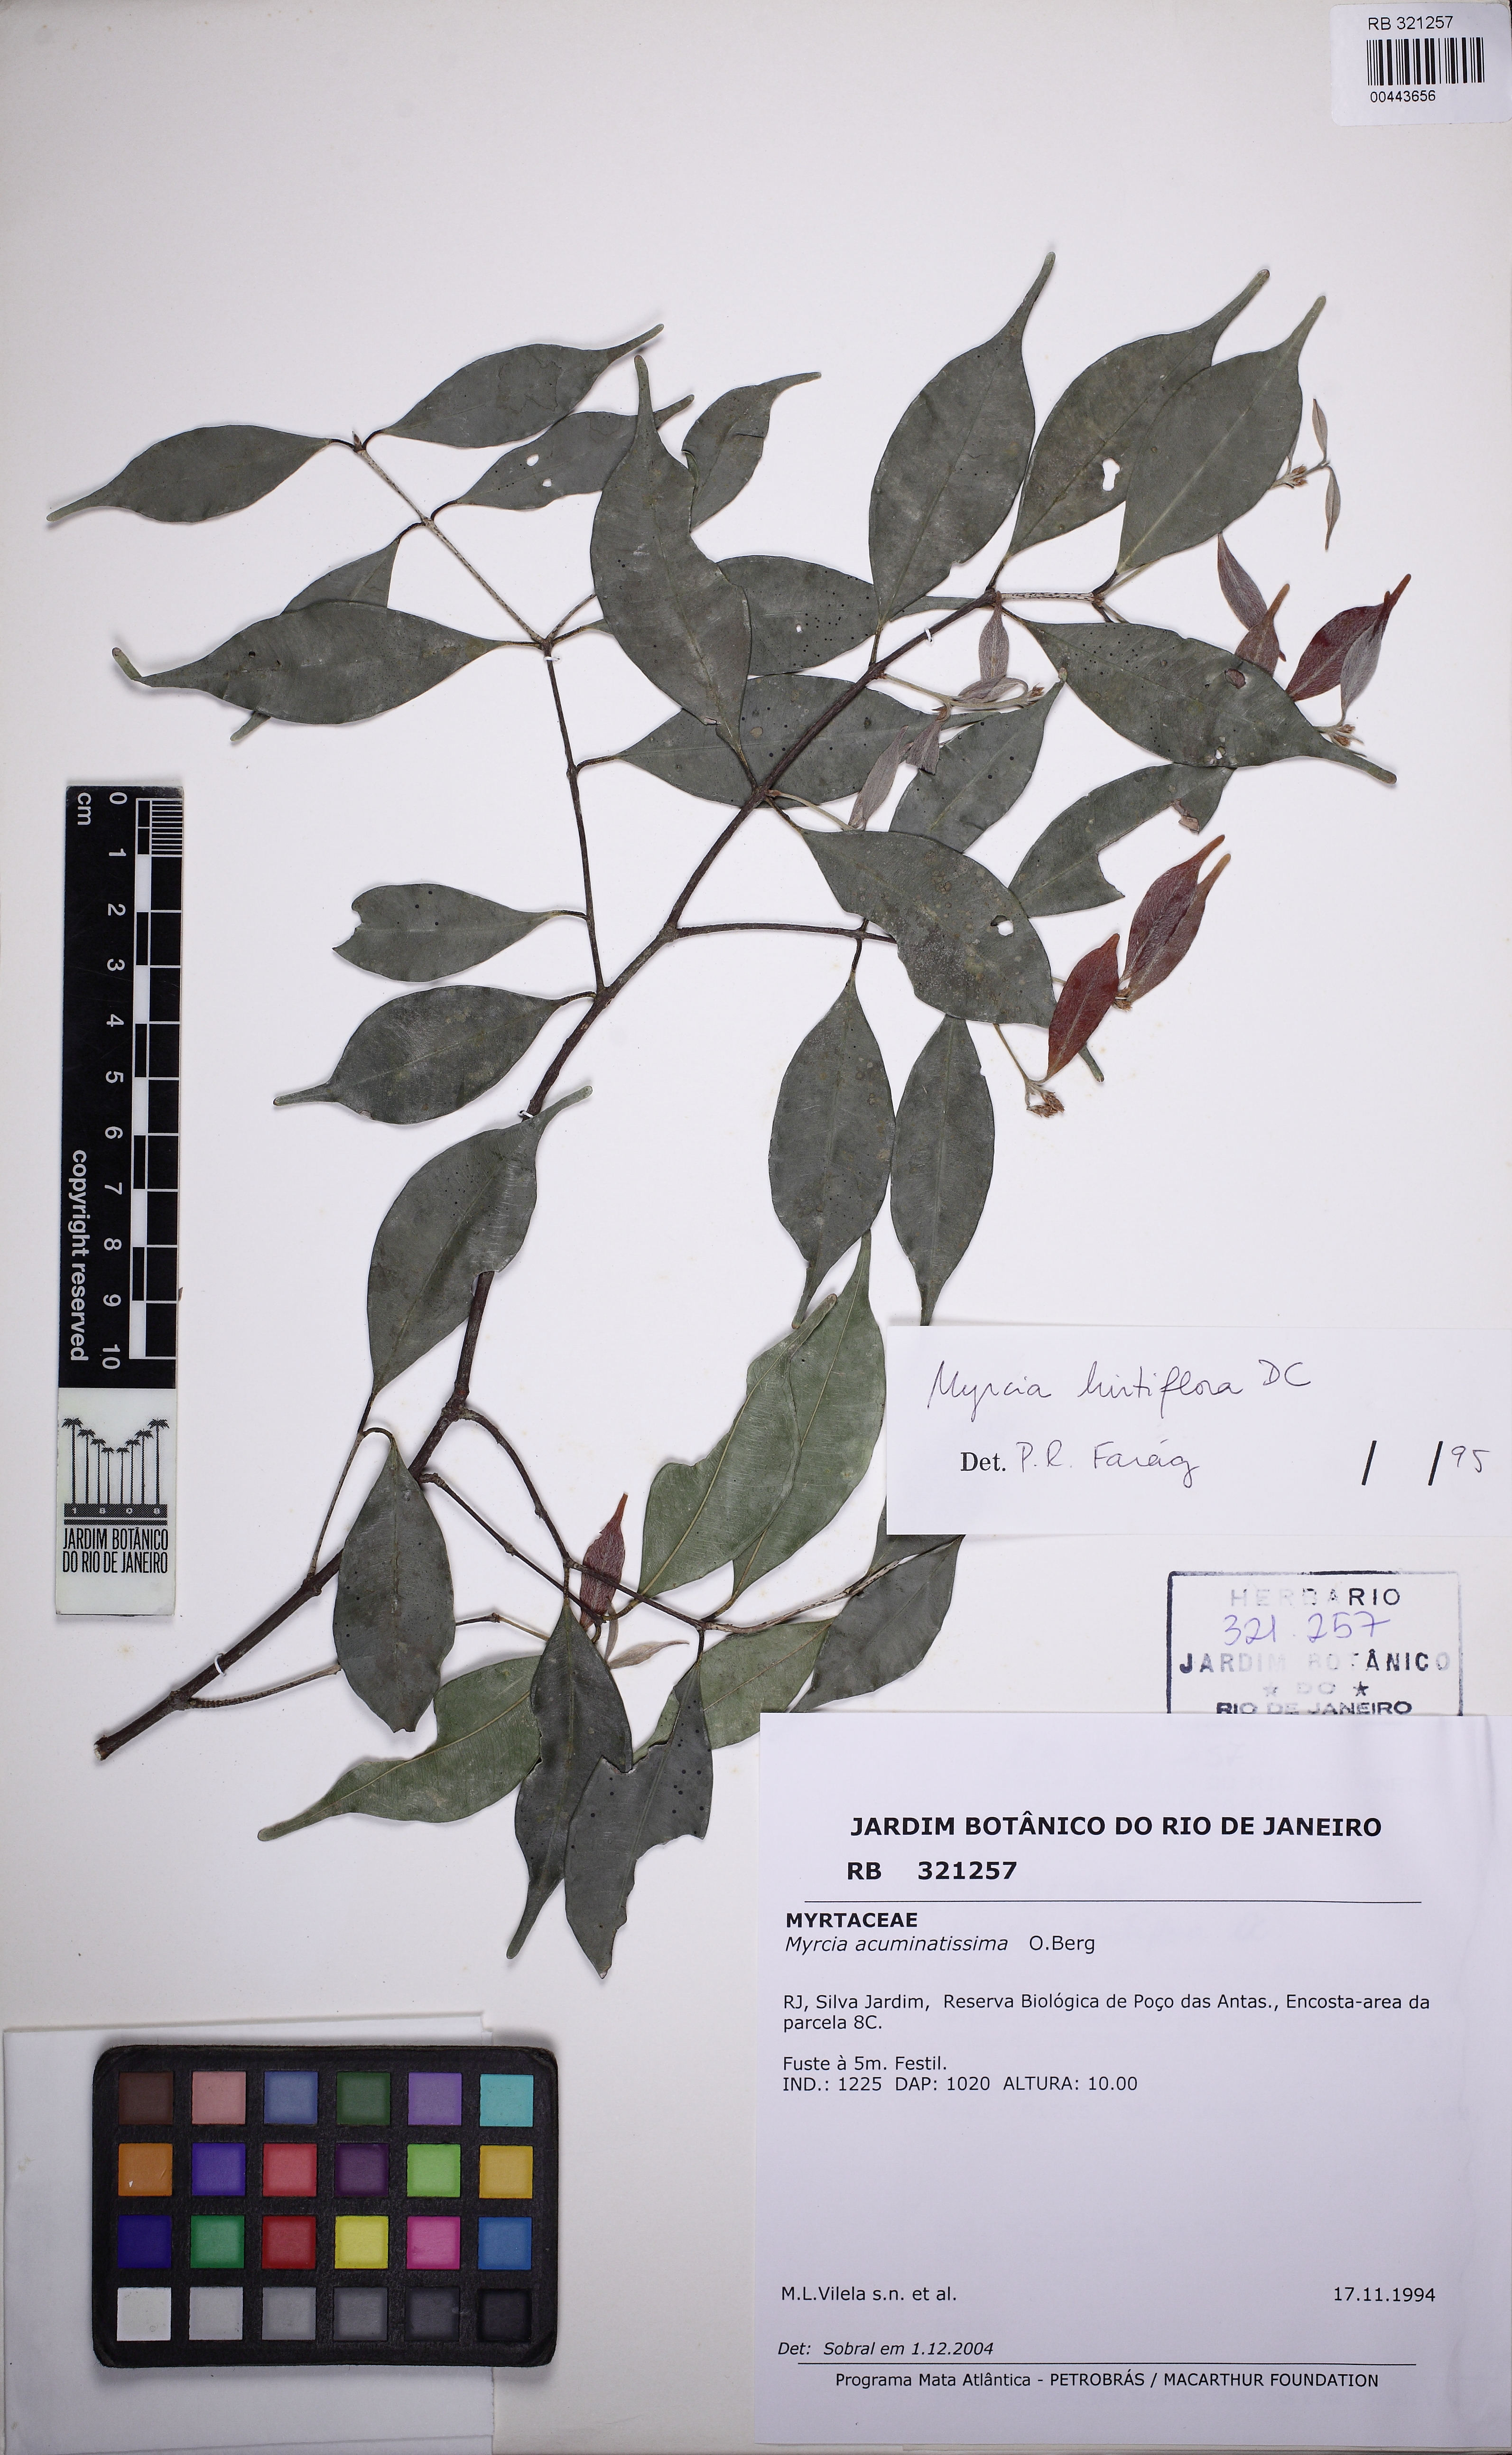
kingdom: Plantae
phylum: Tracheophyta
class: Magnoliopsida
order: Myrtales
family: Myrtaceae
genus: Myrcia
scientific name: Myrcia racemosa
